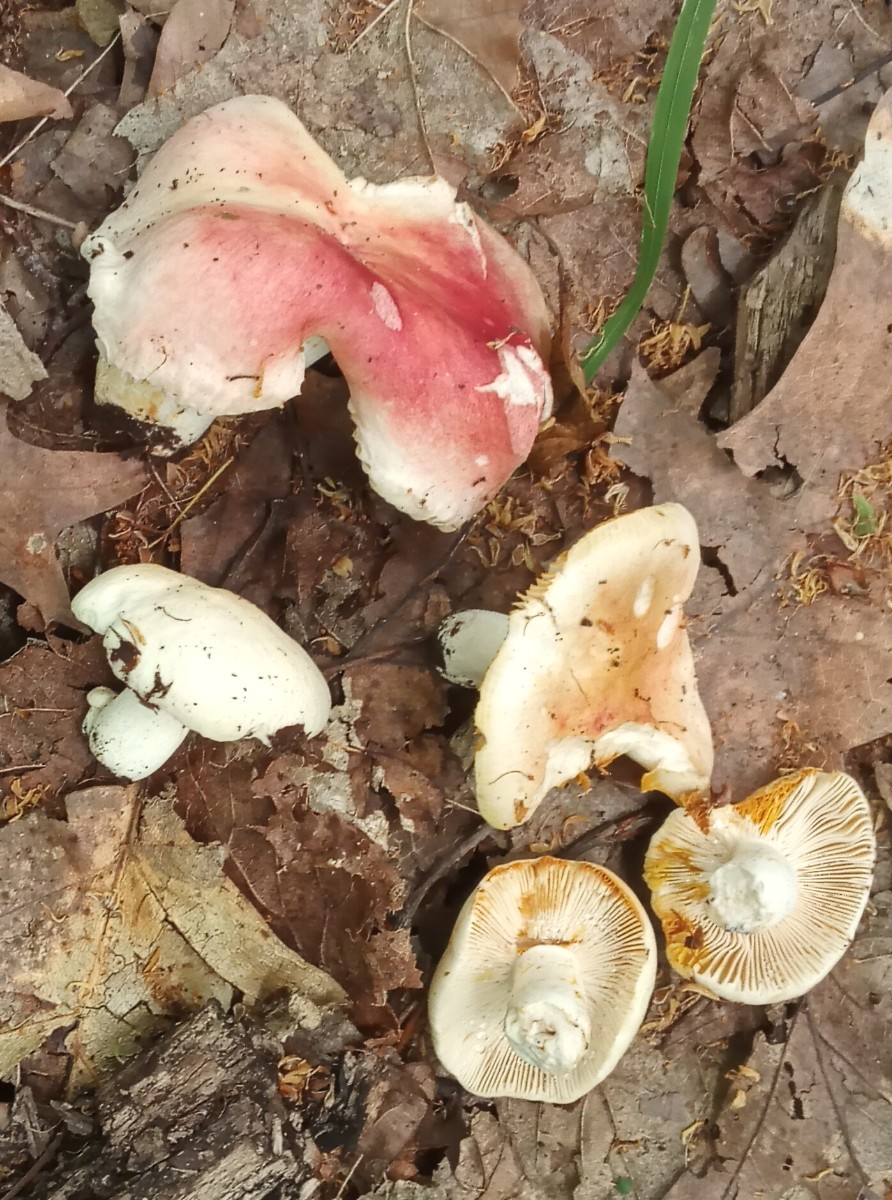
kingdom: Fungi
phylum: Basidiomycota
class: Agaricomycetes
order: Russulales
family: Russulaceae
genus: Russula
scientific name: Russula luteotacta
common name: gulplettet gift-skørhat
